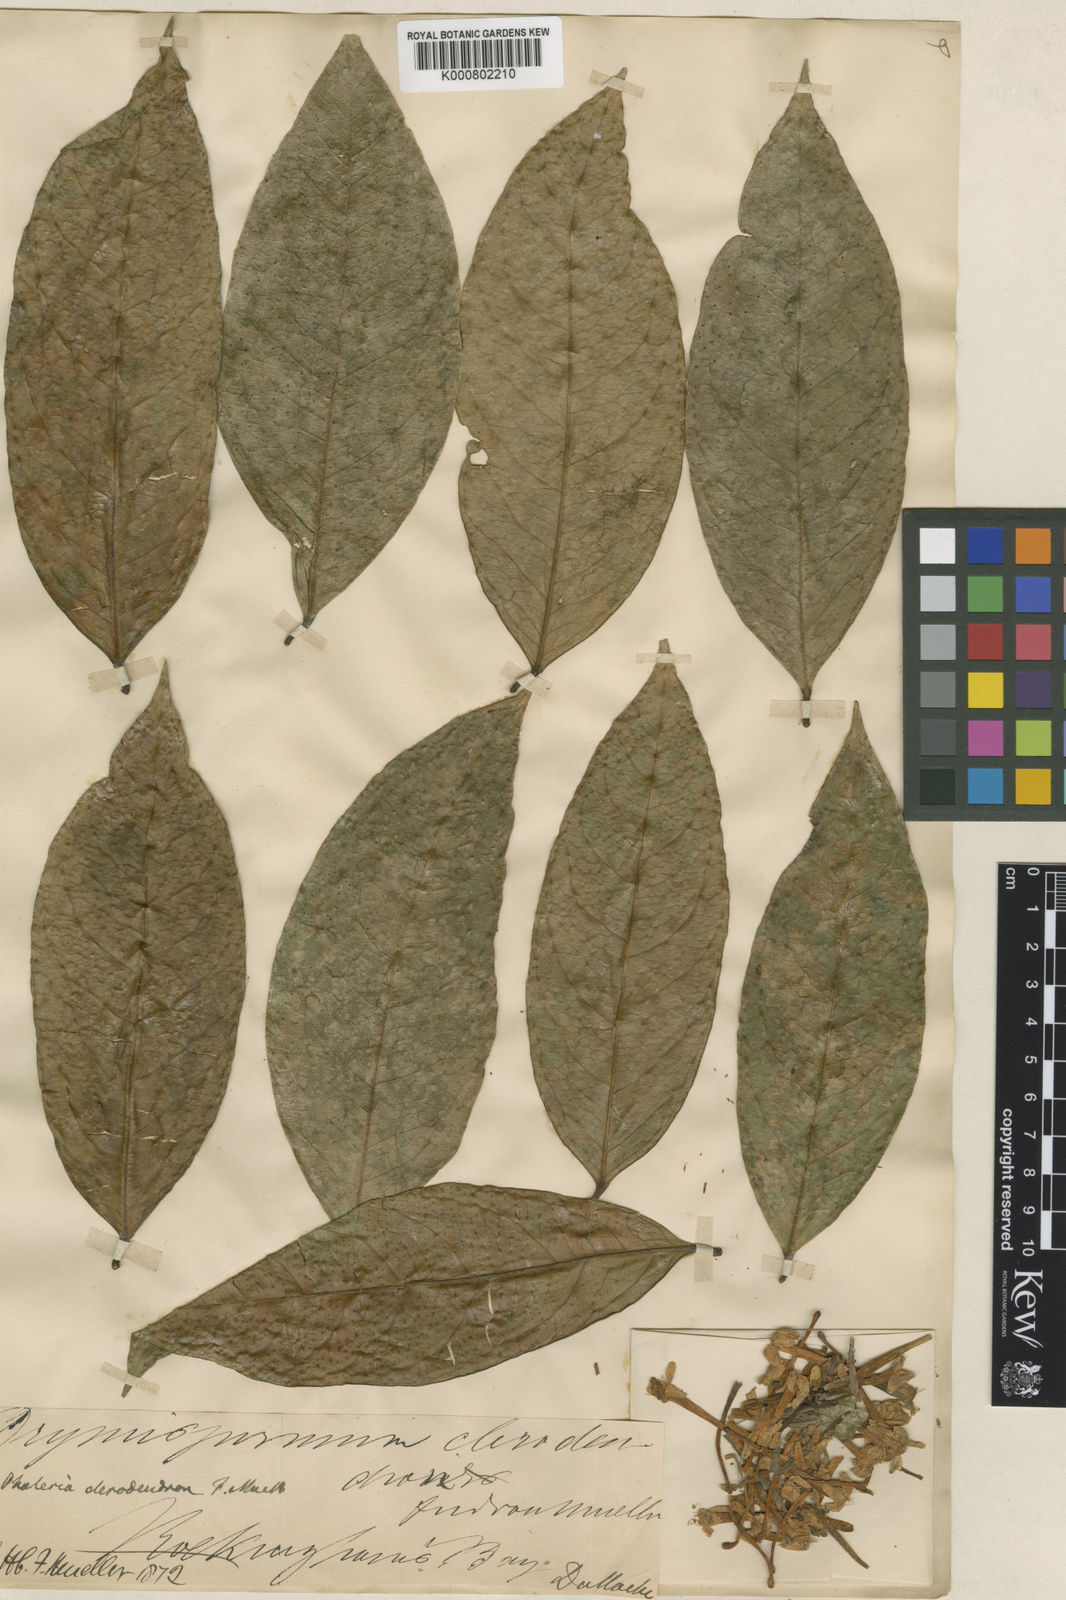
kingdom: Plantae
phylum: Tracheophyta
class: Magnoliopsida
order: Malvales
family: Thymelaeaceae
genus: Phaleria
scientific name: Phaleria clerodendron
